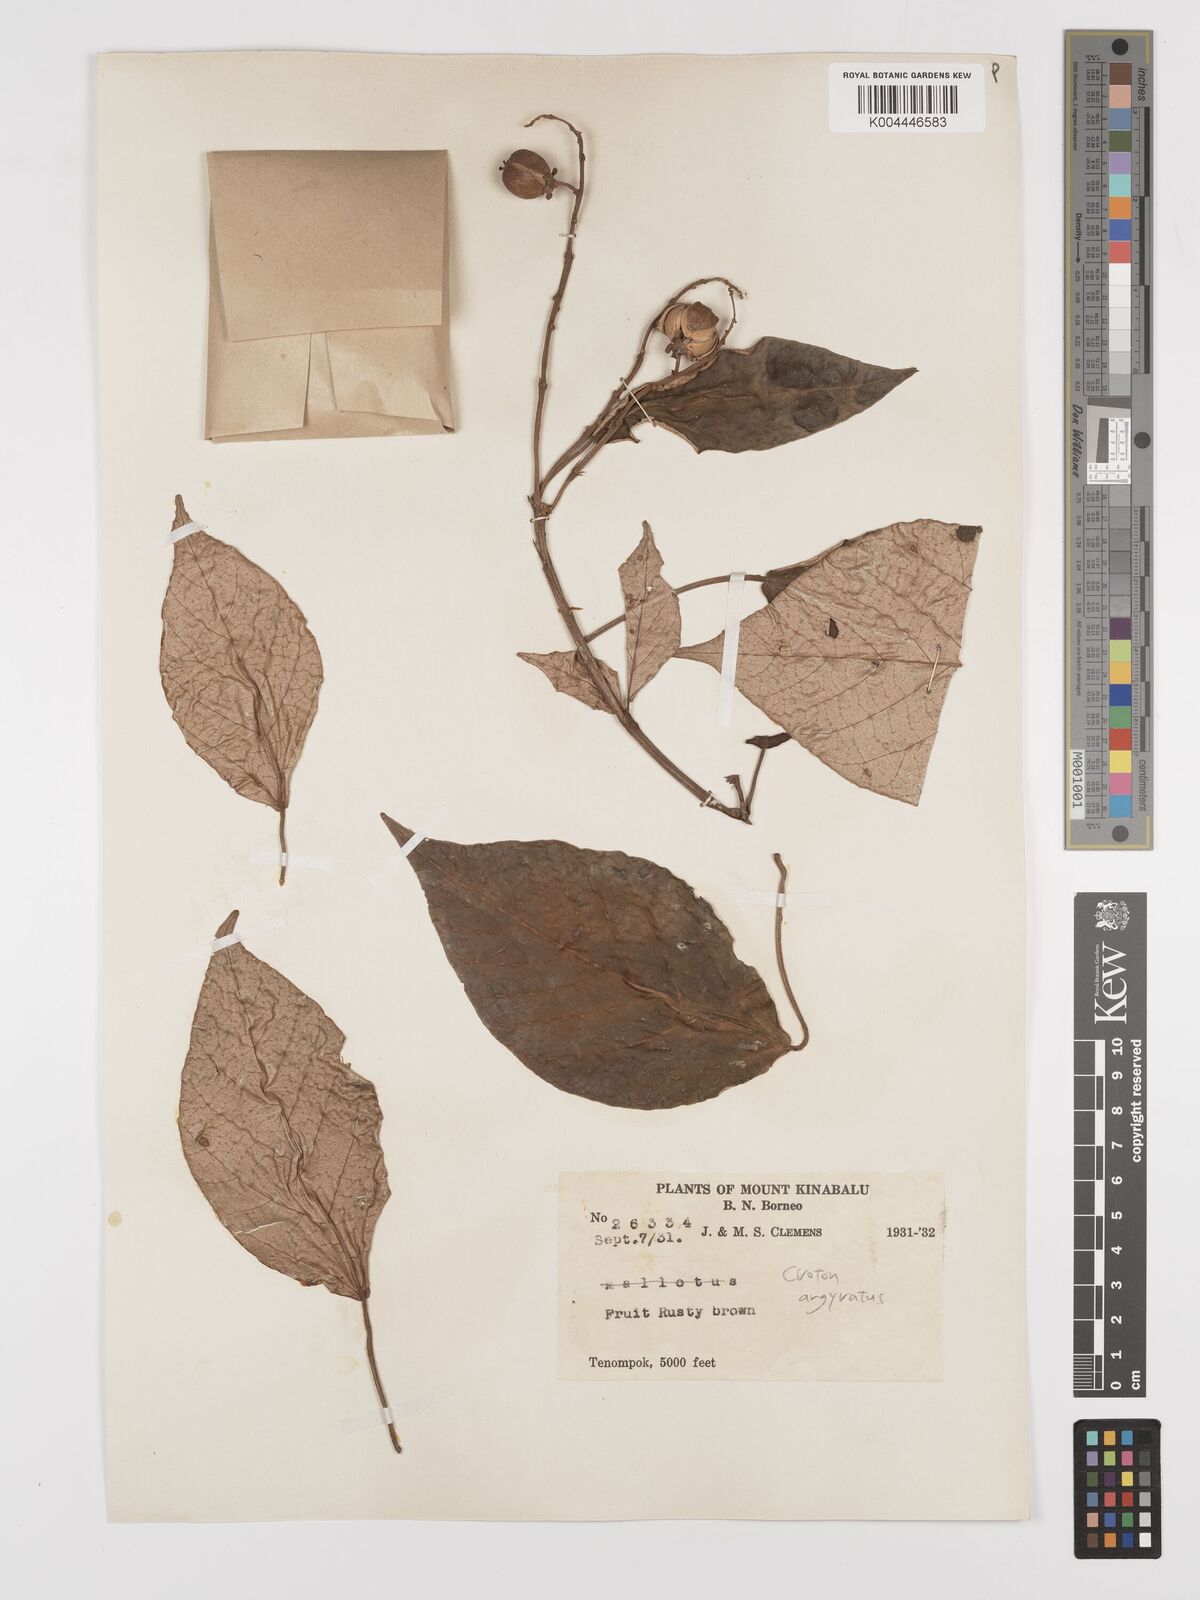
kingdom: Plantae
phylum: Tracheophyta
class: Magnoliopsida
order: Malpighiales
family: Euphorbiaceae
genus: Croton
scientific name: Croton argyratus
